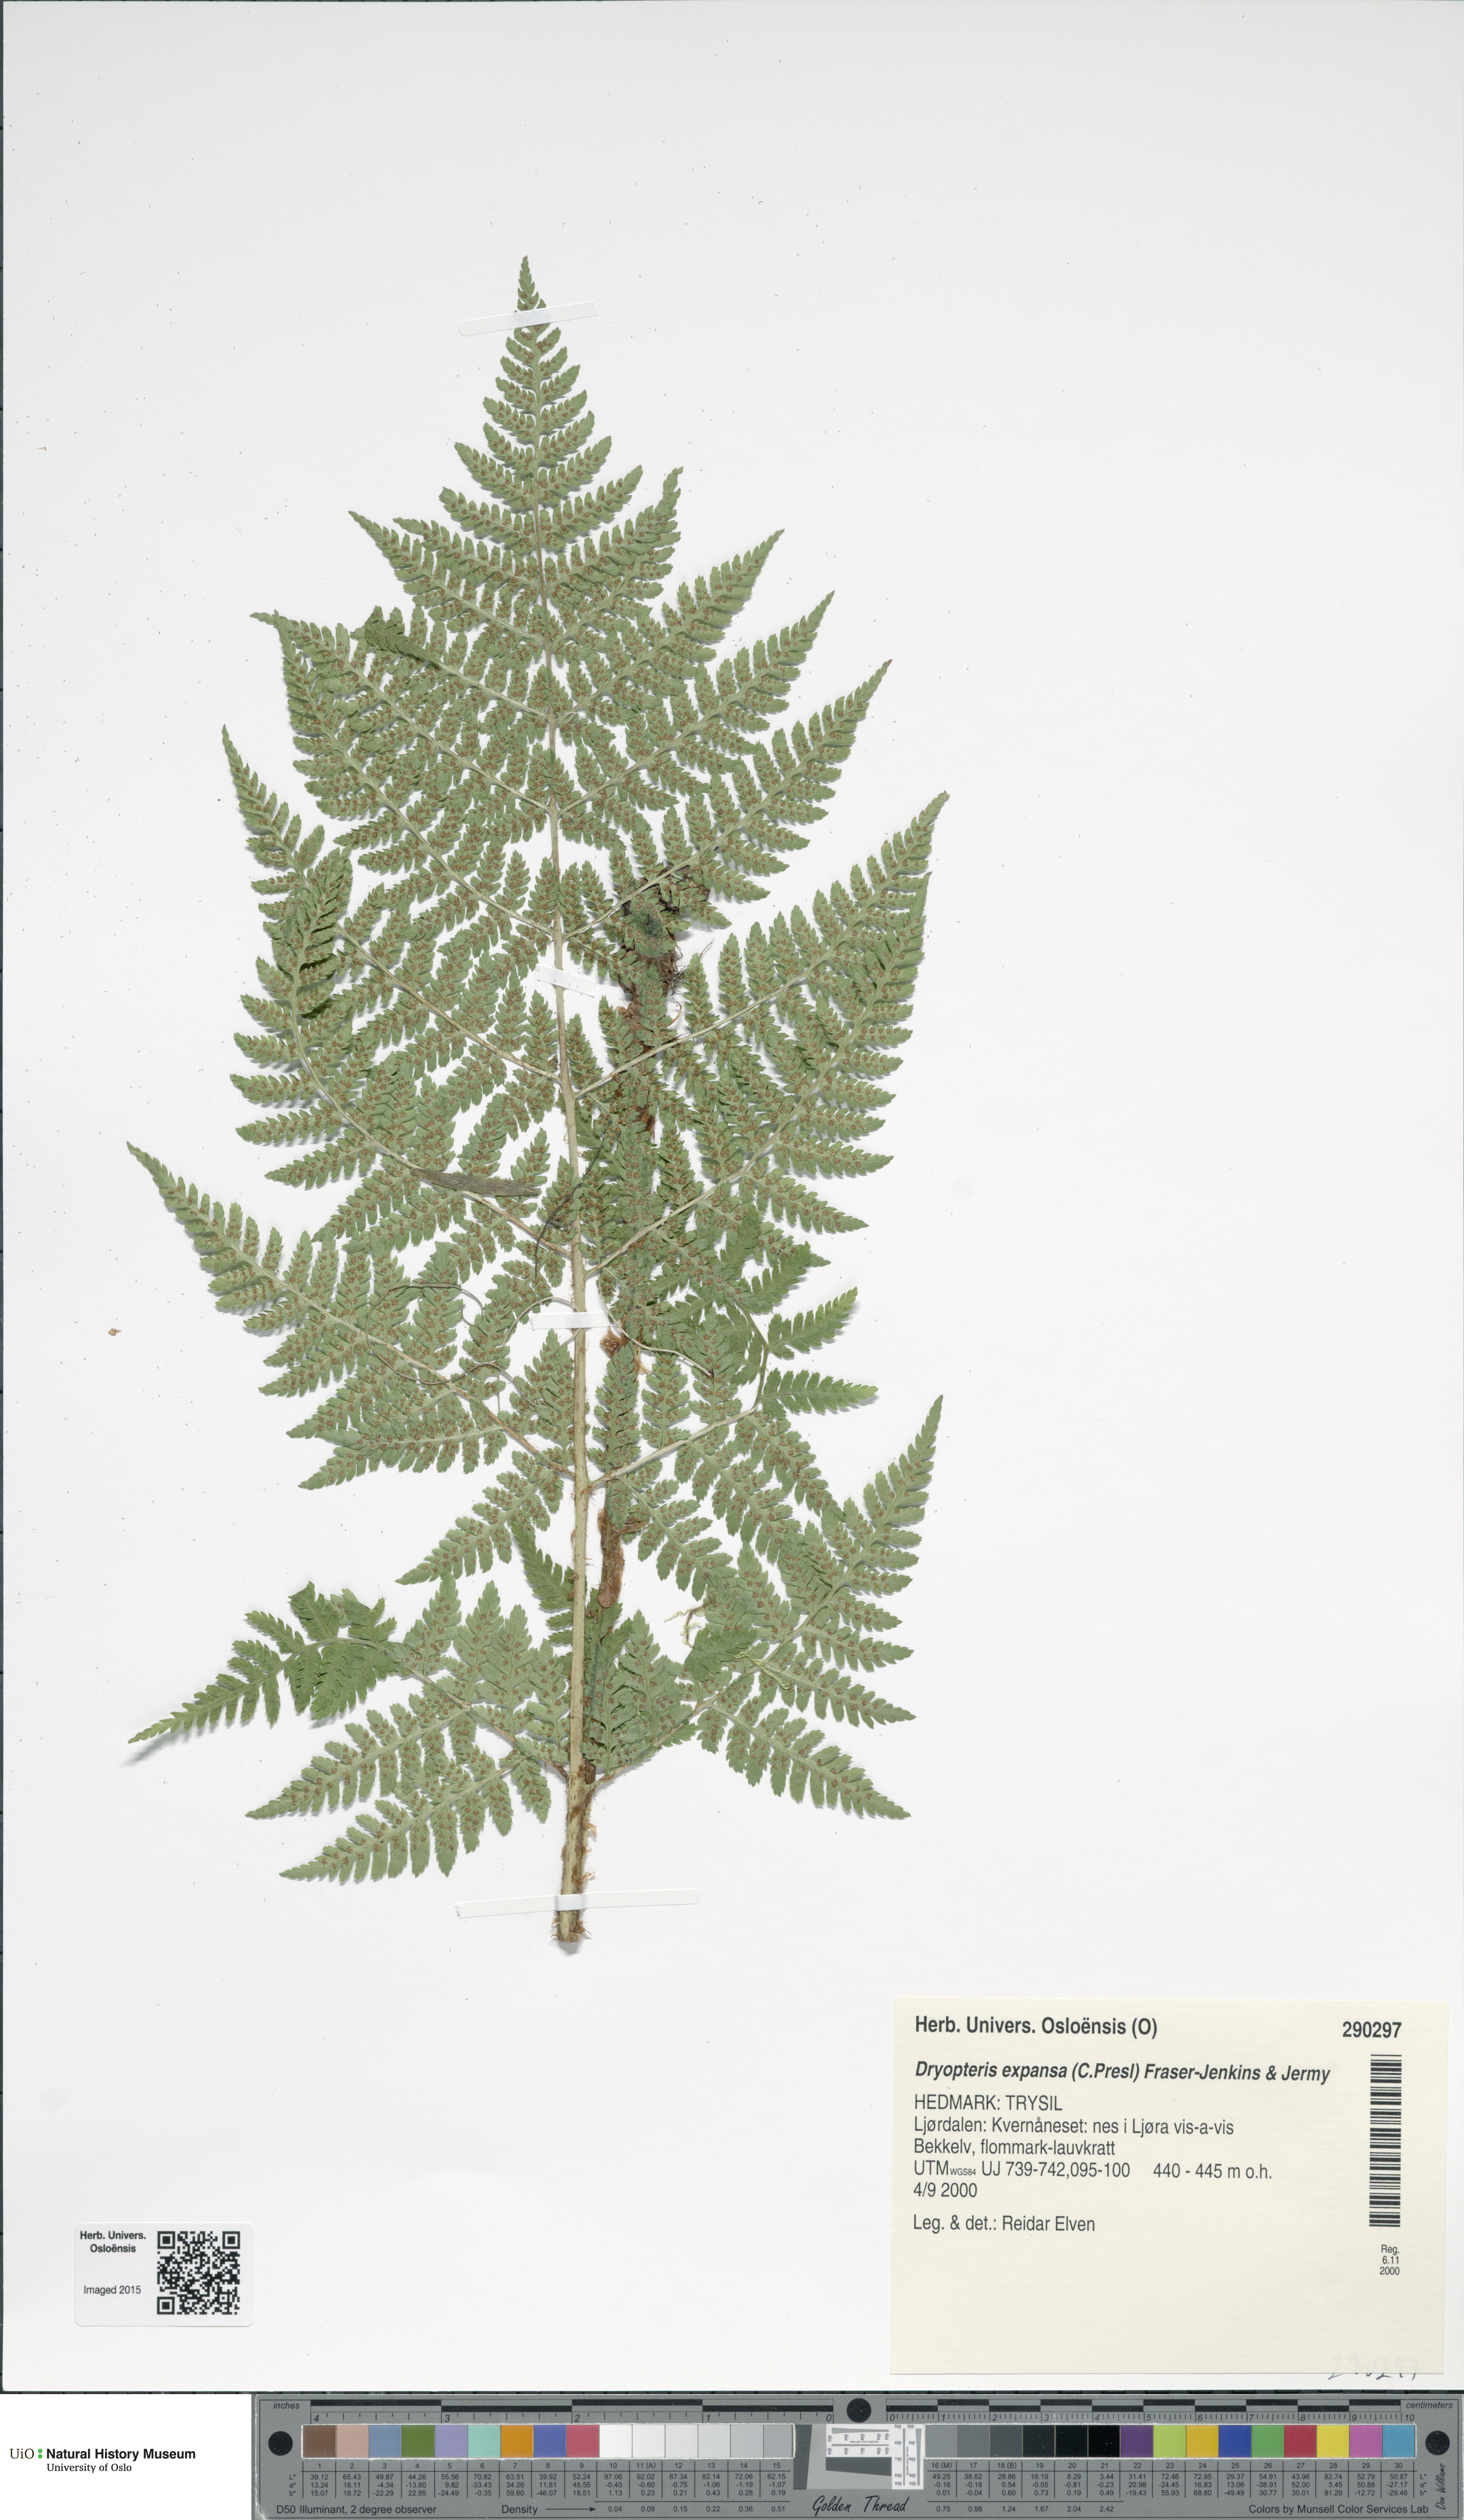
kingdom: Plantae
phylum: Tracheophyta
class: Polypodiopsida
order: Polypodiales
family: Dryopteridaceae
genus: Dryopteris
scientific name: Dryopteris expansa
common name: Northern buckler fern
